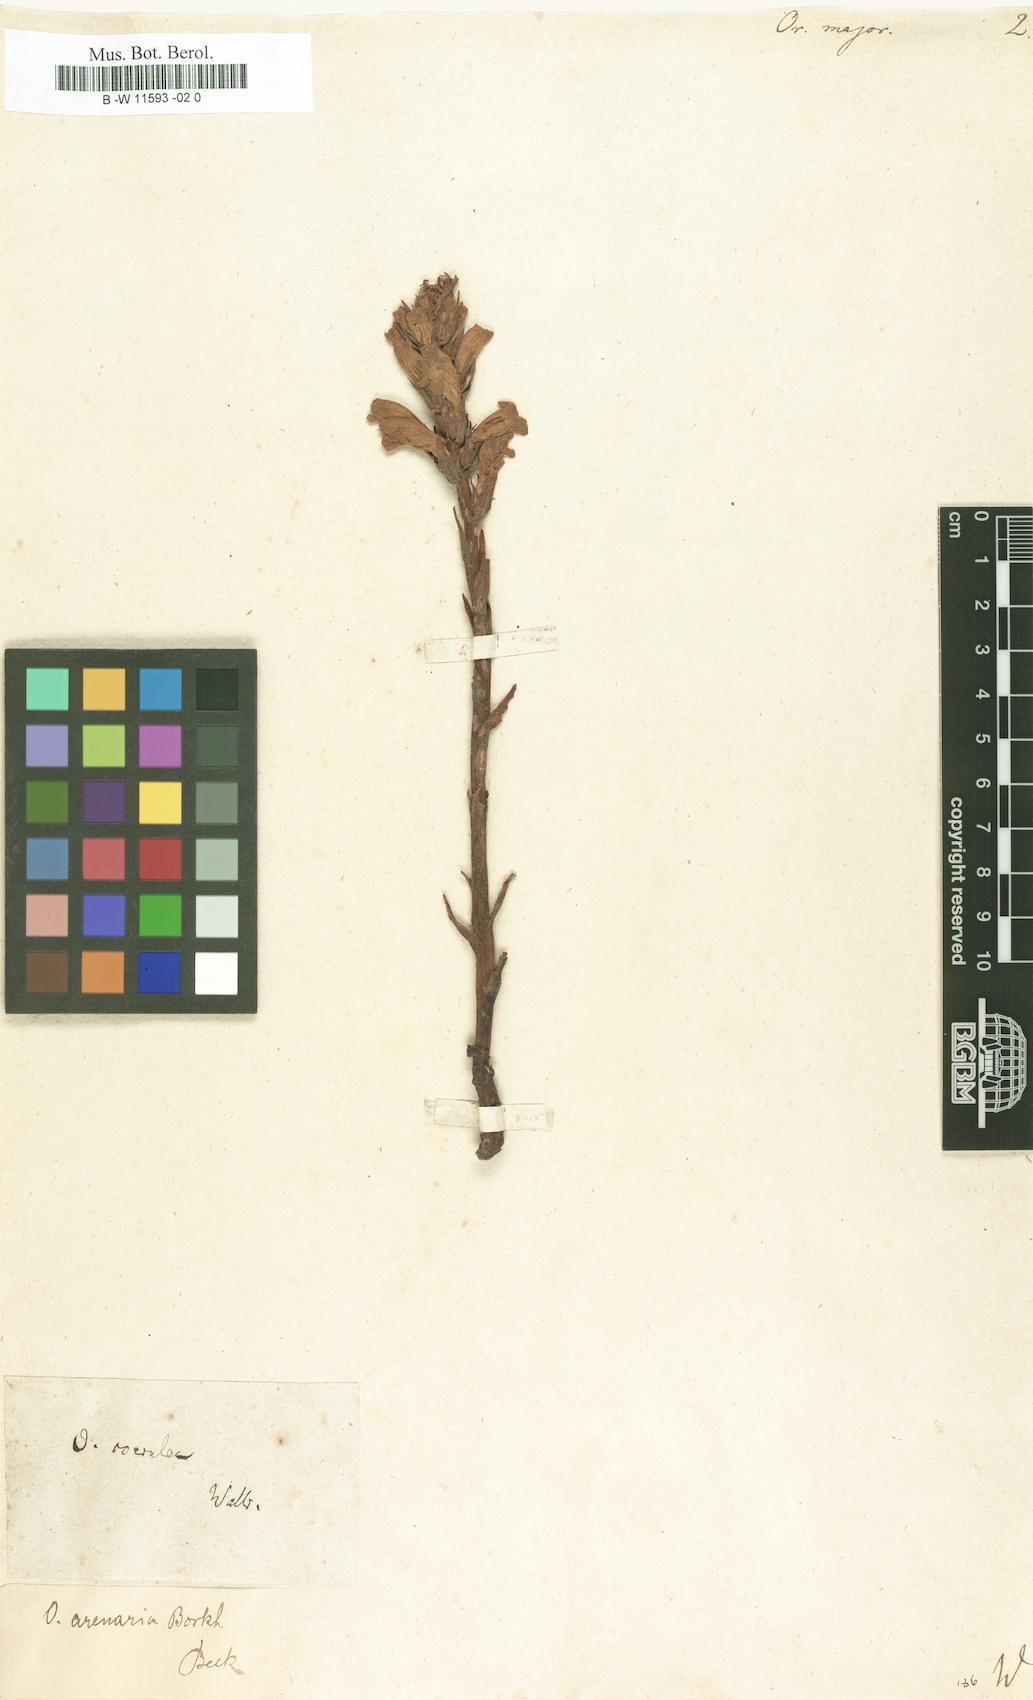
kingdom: Plantae
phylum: Tracheophyta
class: Magnoliopsida
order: Lamiales
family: Orobanchaceae
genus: Orobanche
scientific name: Orobanche major
